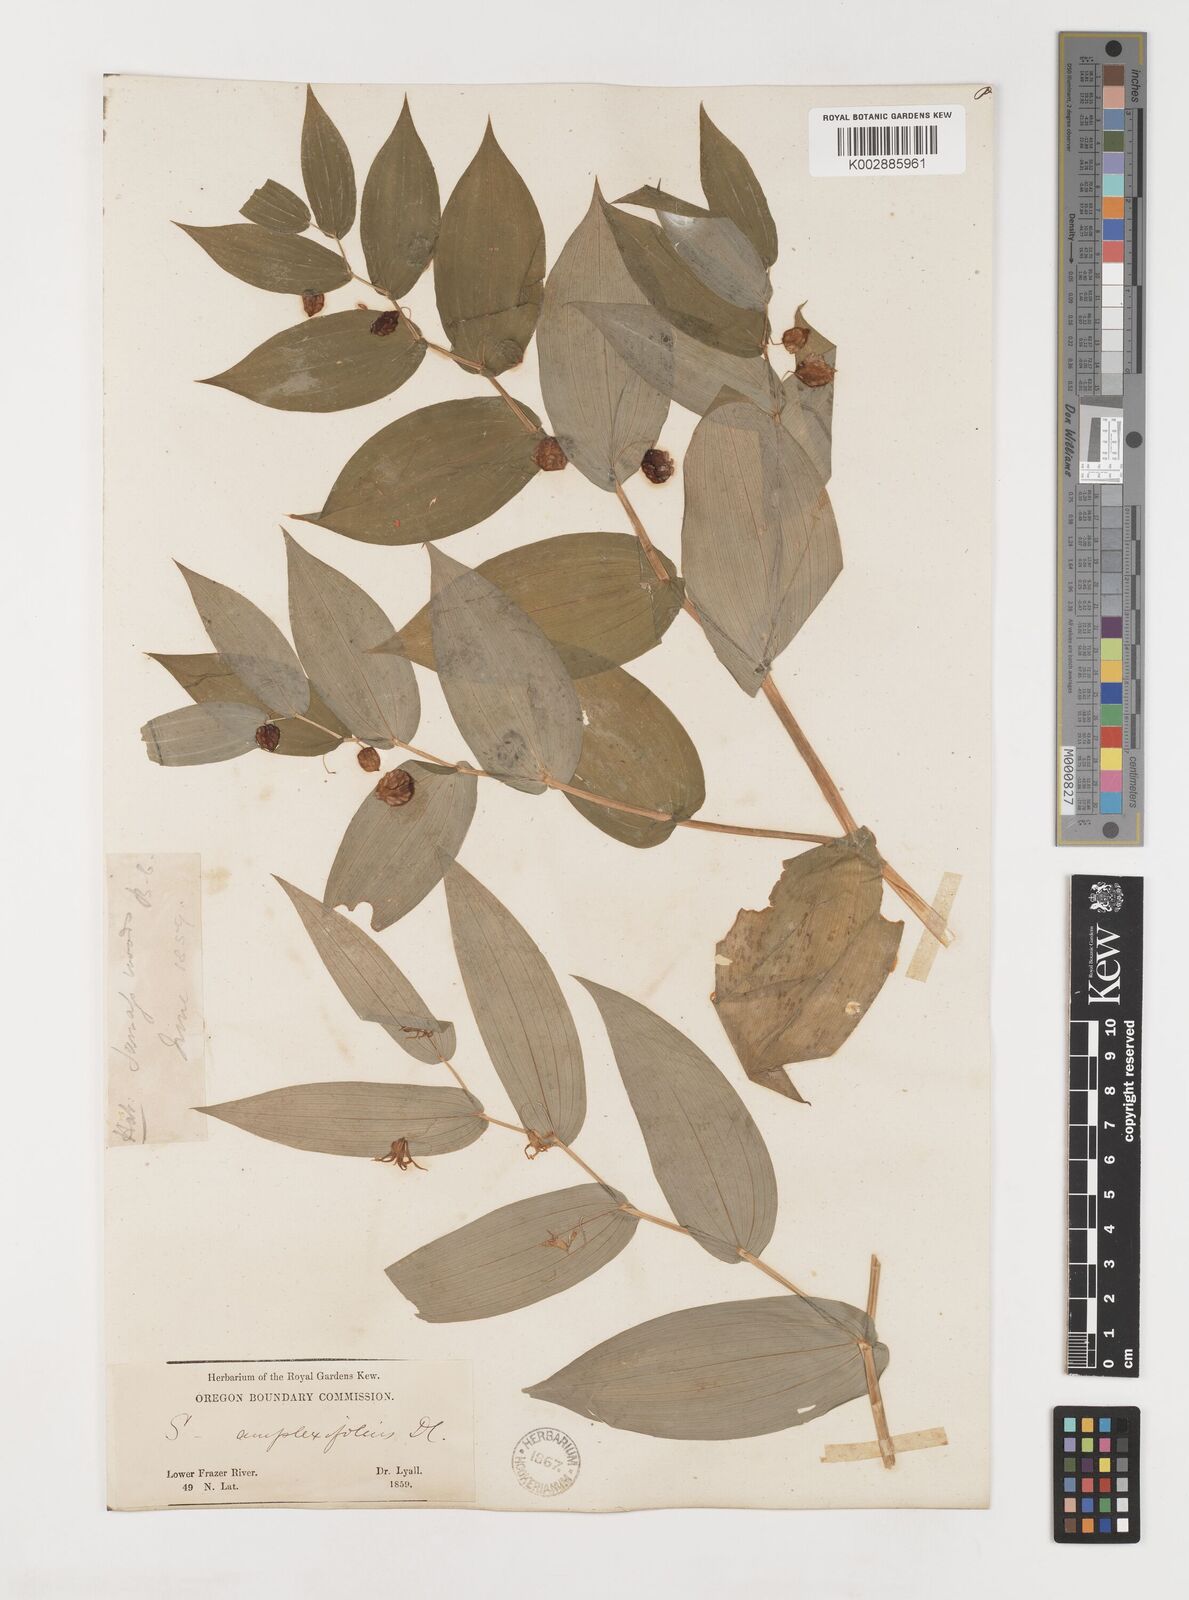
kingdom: Plantae
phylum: Tracheophyta
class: Liliopsida
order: Liliales
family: Liliaceae
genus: Streptopus
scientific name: Streptopus amplexifolius
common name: Clasp twisted stalk
